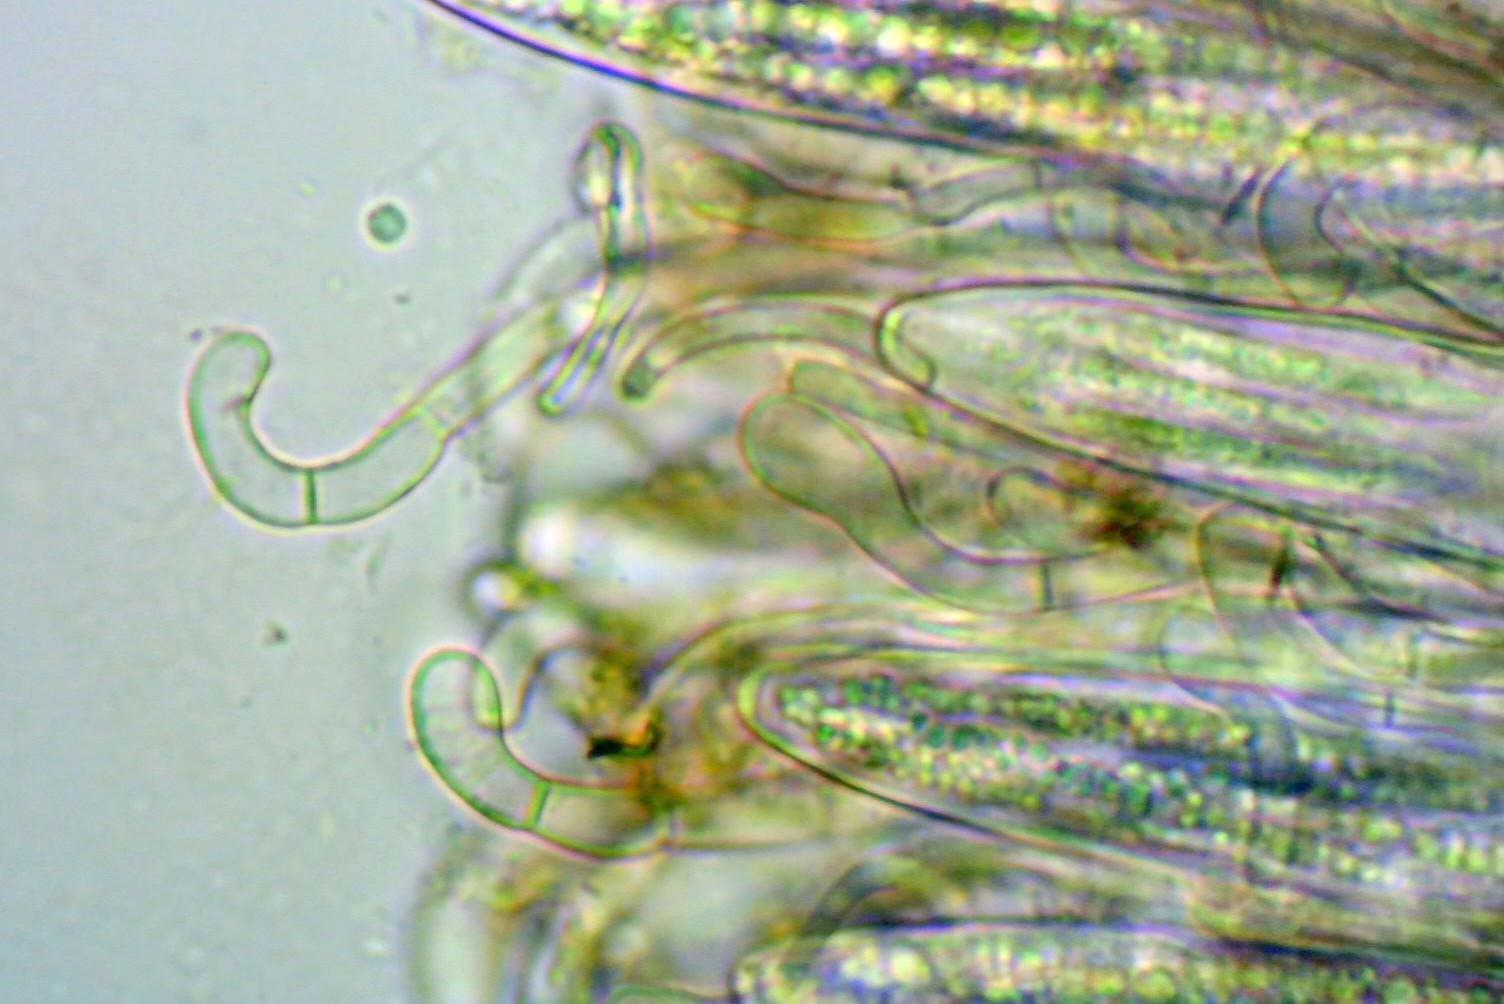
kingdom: Fungi
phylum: Ascomycota
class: Geoglossomycetes
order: Geoglossales
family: Geoglossaceae
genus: Hemileucoglossum
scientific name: Hemileucoglossum elongatum
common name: småsporet jordtunge
